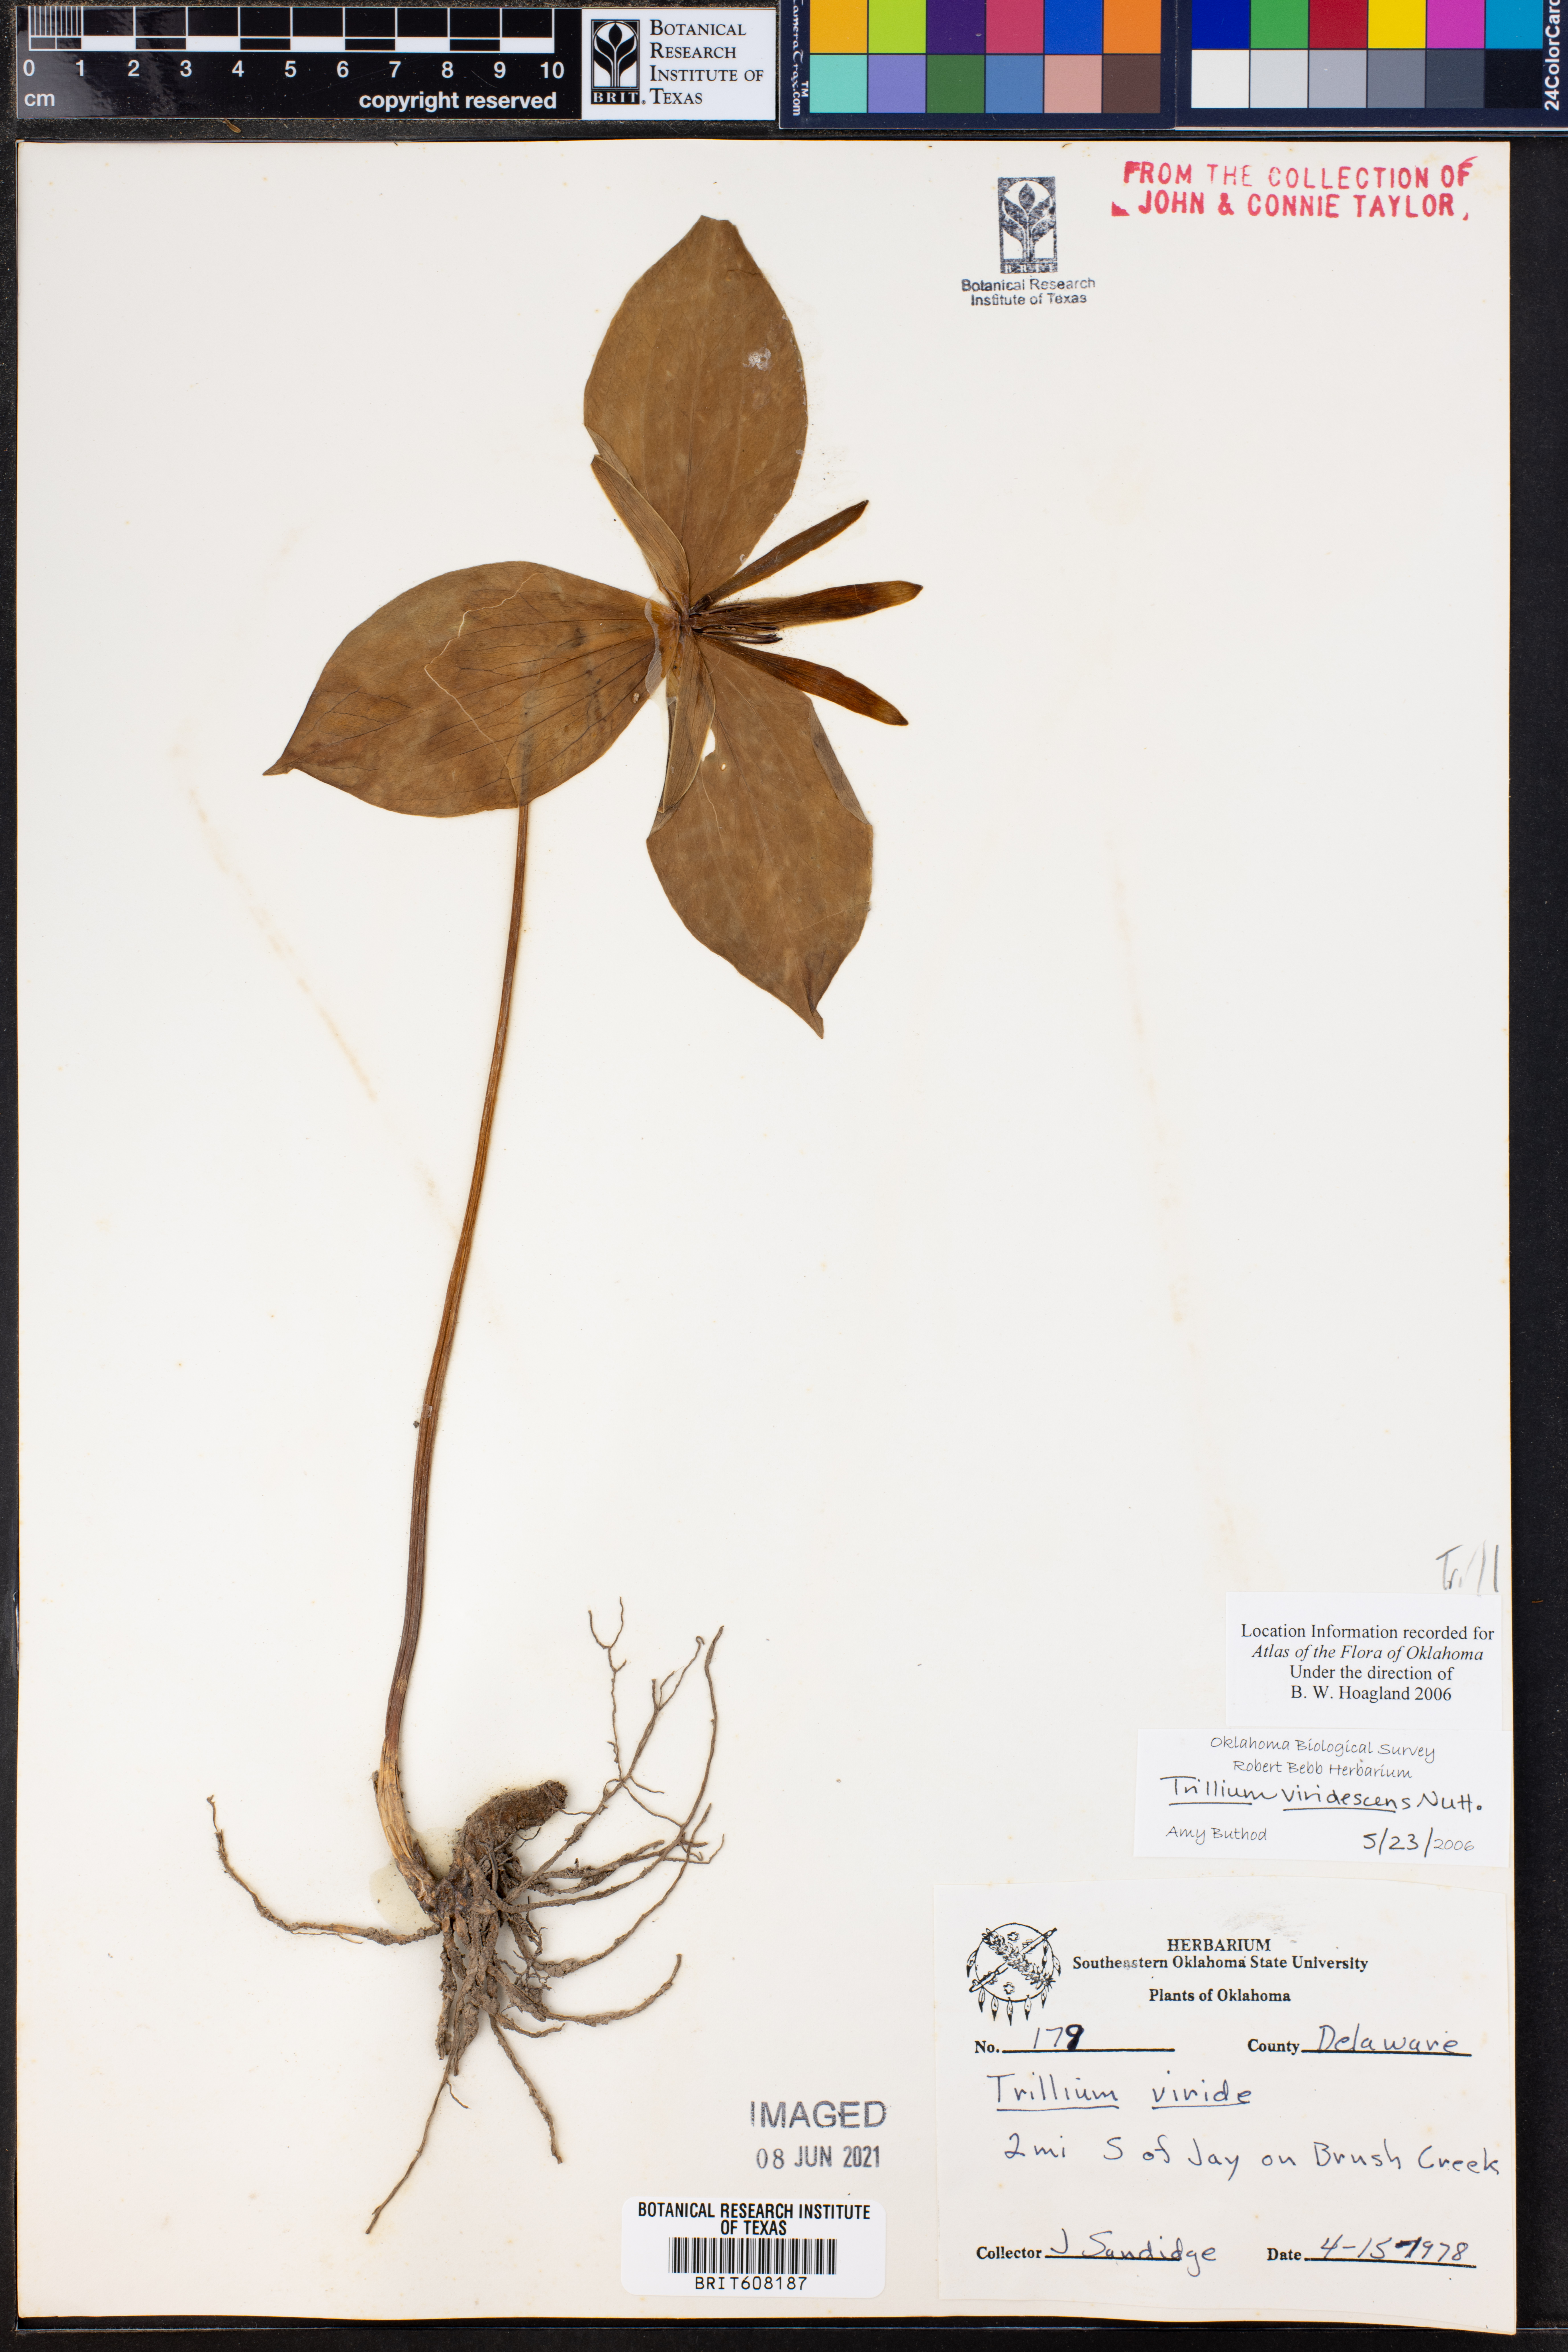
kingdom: Plantae
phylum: Tracheophyta
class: Liliopsida
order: Liliales
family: Melanthiaceae
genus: Trillium
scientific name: Trillium viridescens
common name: Ozark green trillium
